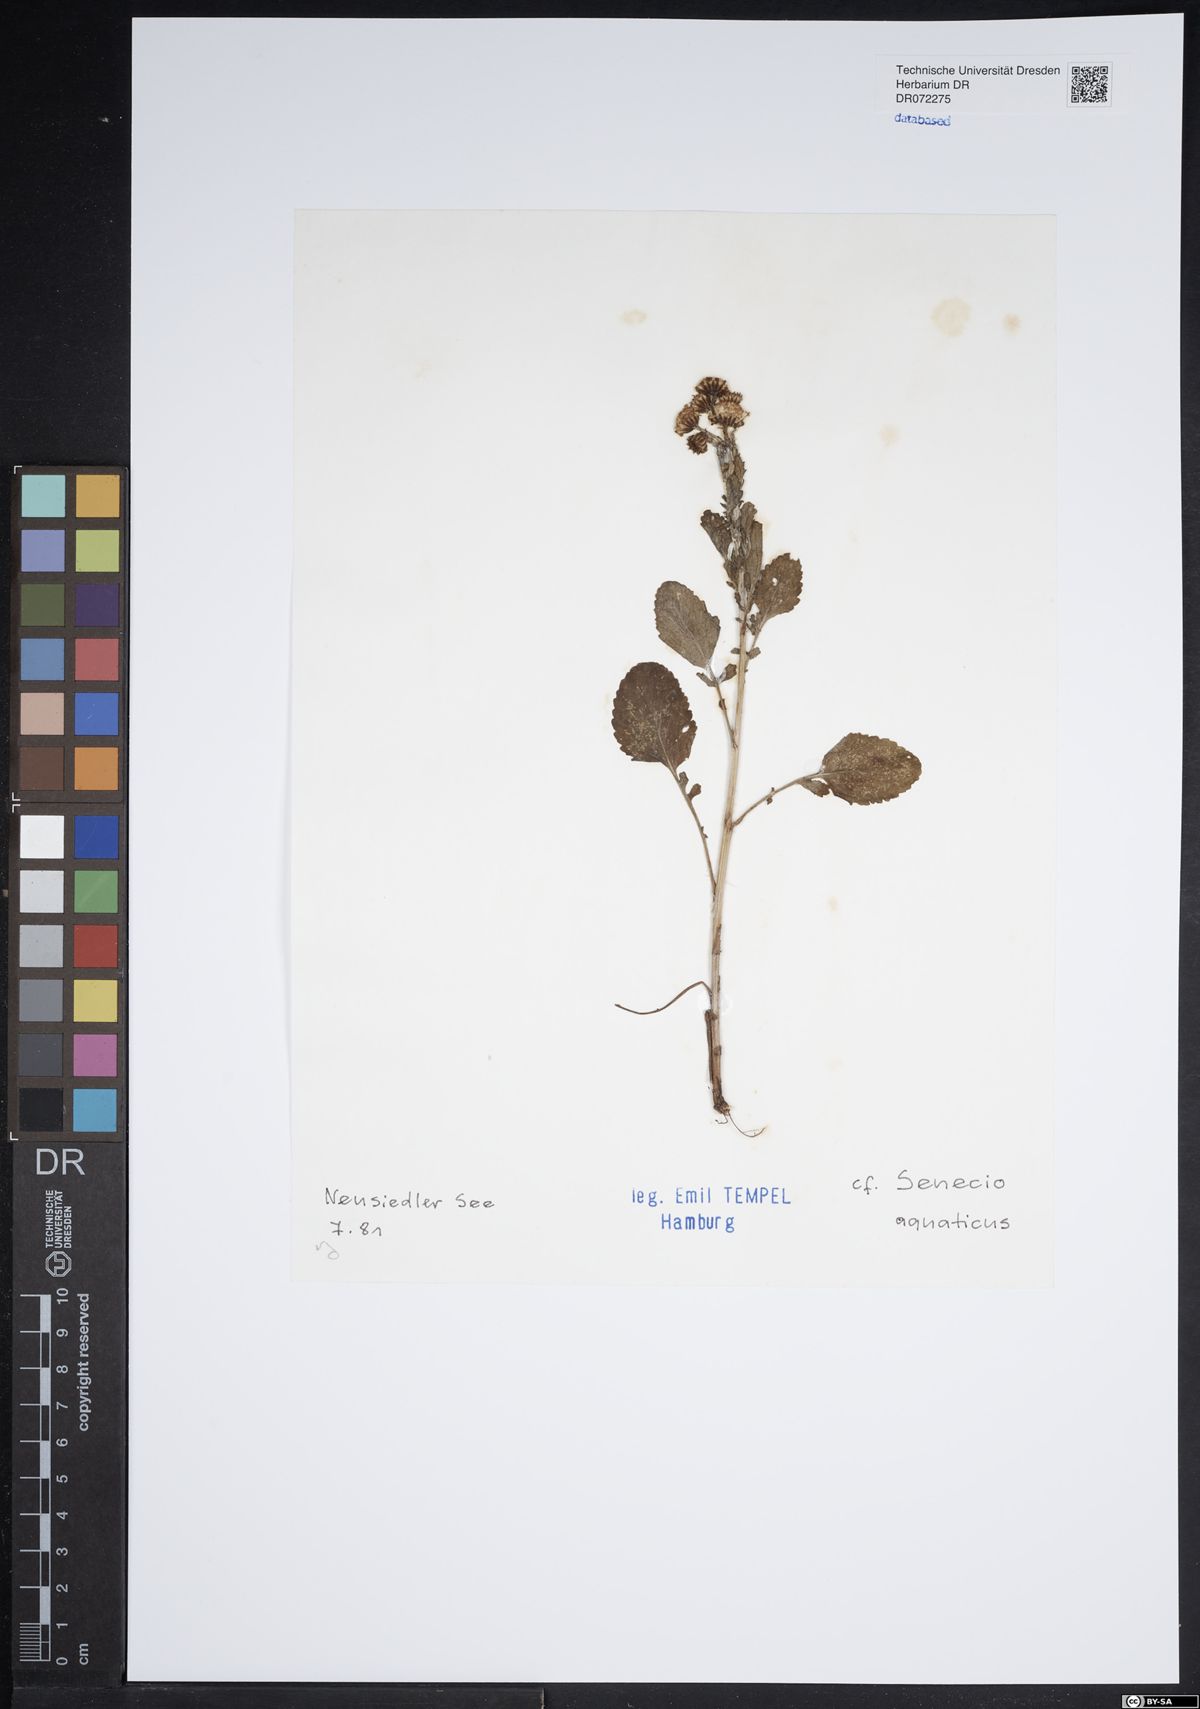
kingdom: Plantae
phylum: Tracheophyta
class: Magnoliopsida
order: Asterales
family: Asteraceae
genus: Jacobaea
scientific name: Jacobaea aquatica
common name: Water ragwort
